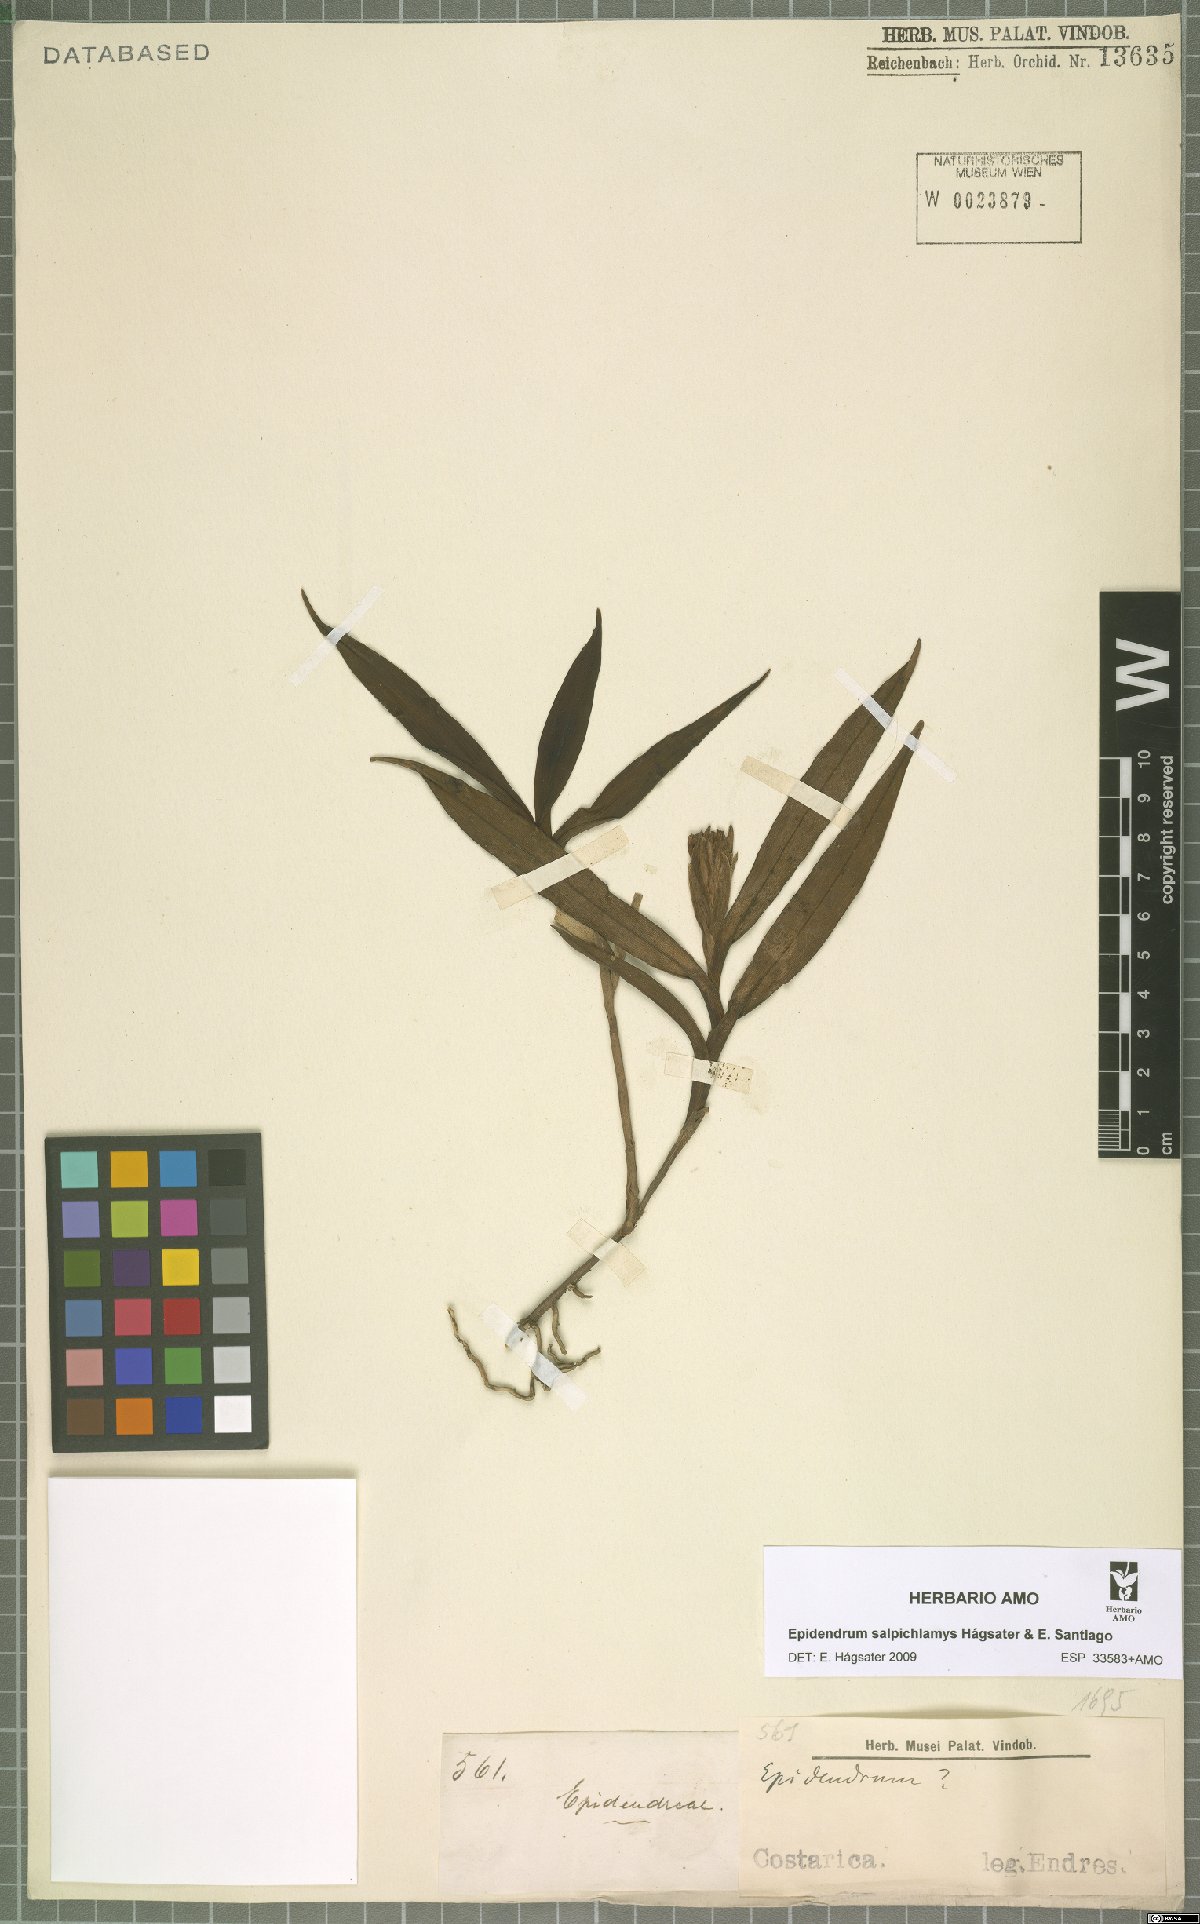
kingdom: Plantae
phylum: Tracheophyta
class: Liliopsida
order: Asparagales
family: Orchidaceae
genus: Epidendrum
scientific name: Epidendrum salpichlamys
